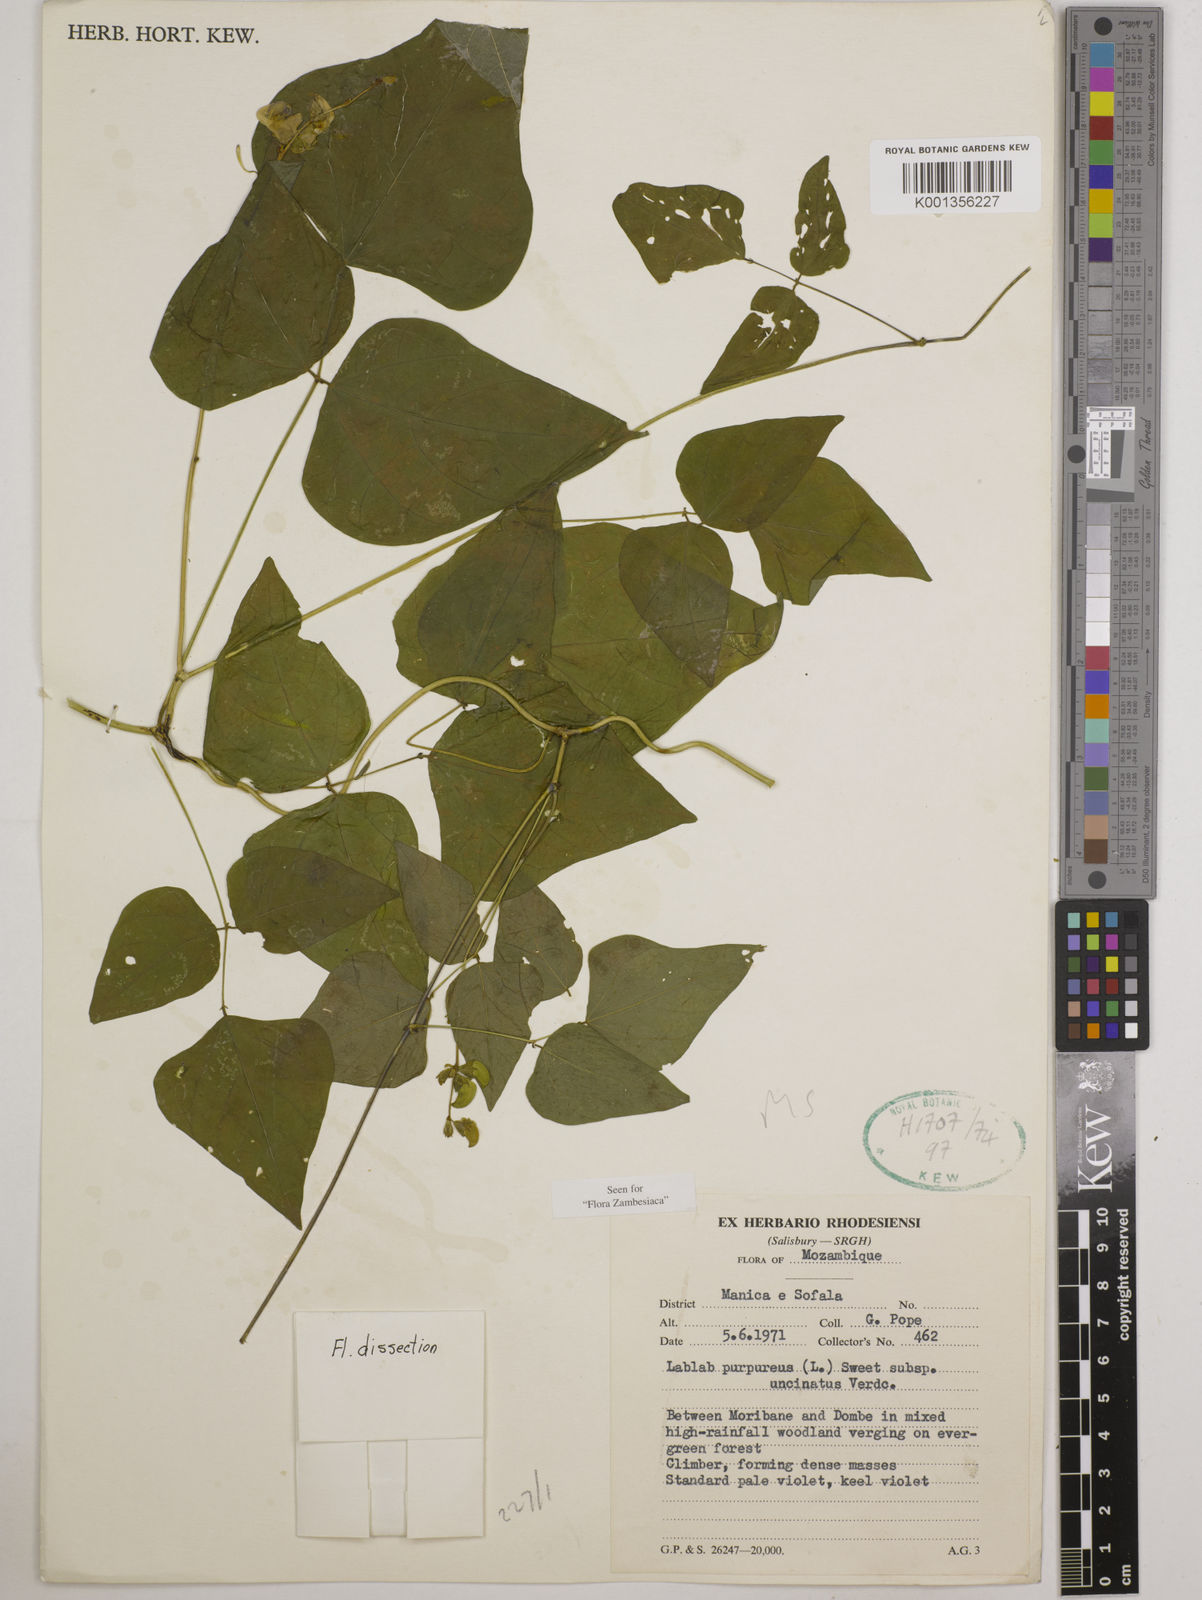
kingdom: Plantae
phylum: Tracheophyta
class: Magnoliopsida
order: Fabales
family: Fabaceae
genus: Lablab
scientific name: Lablab purpureus
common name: Lablab-bean
